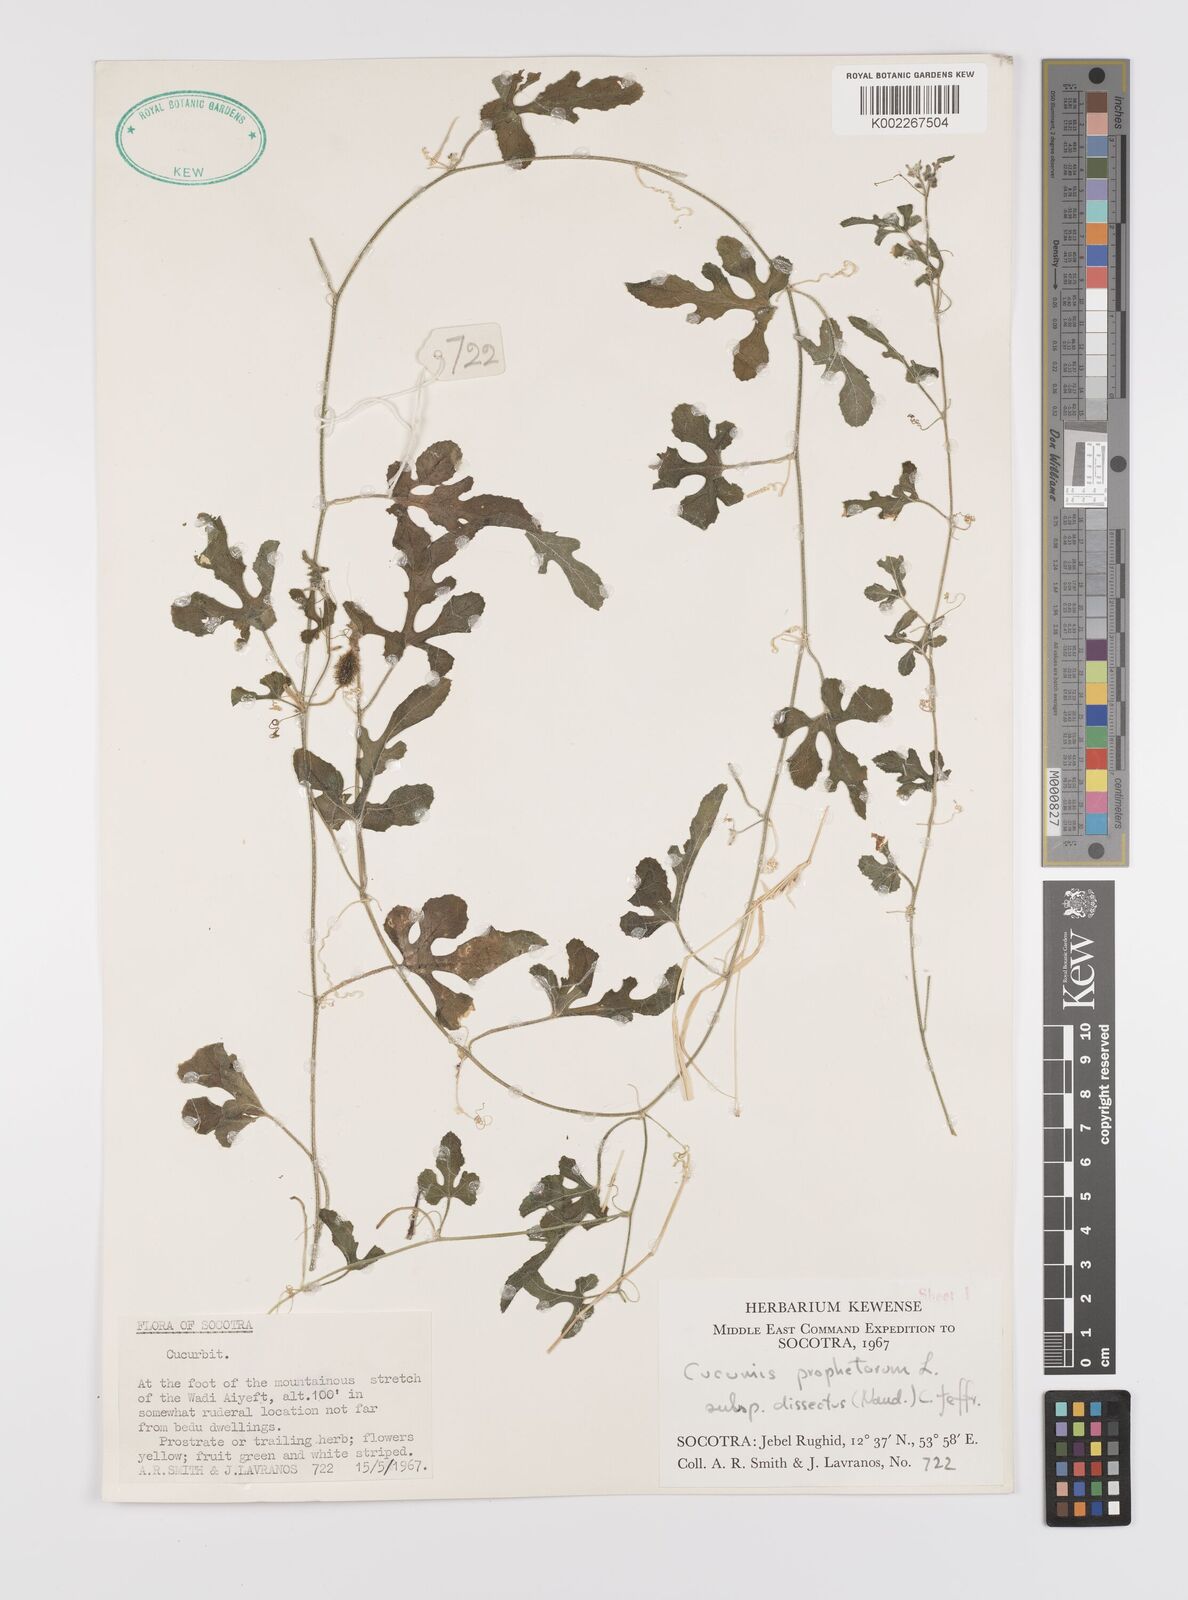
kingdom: Plantae
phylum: Tracheophyta
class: Magnoliopsida
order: Cucurbitales
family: Cucurbitaceae
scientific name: Cucurbitaceae
